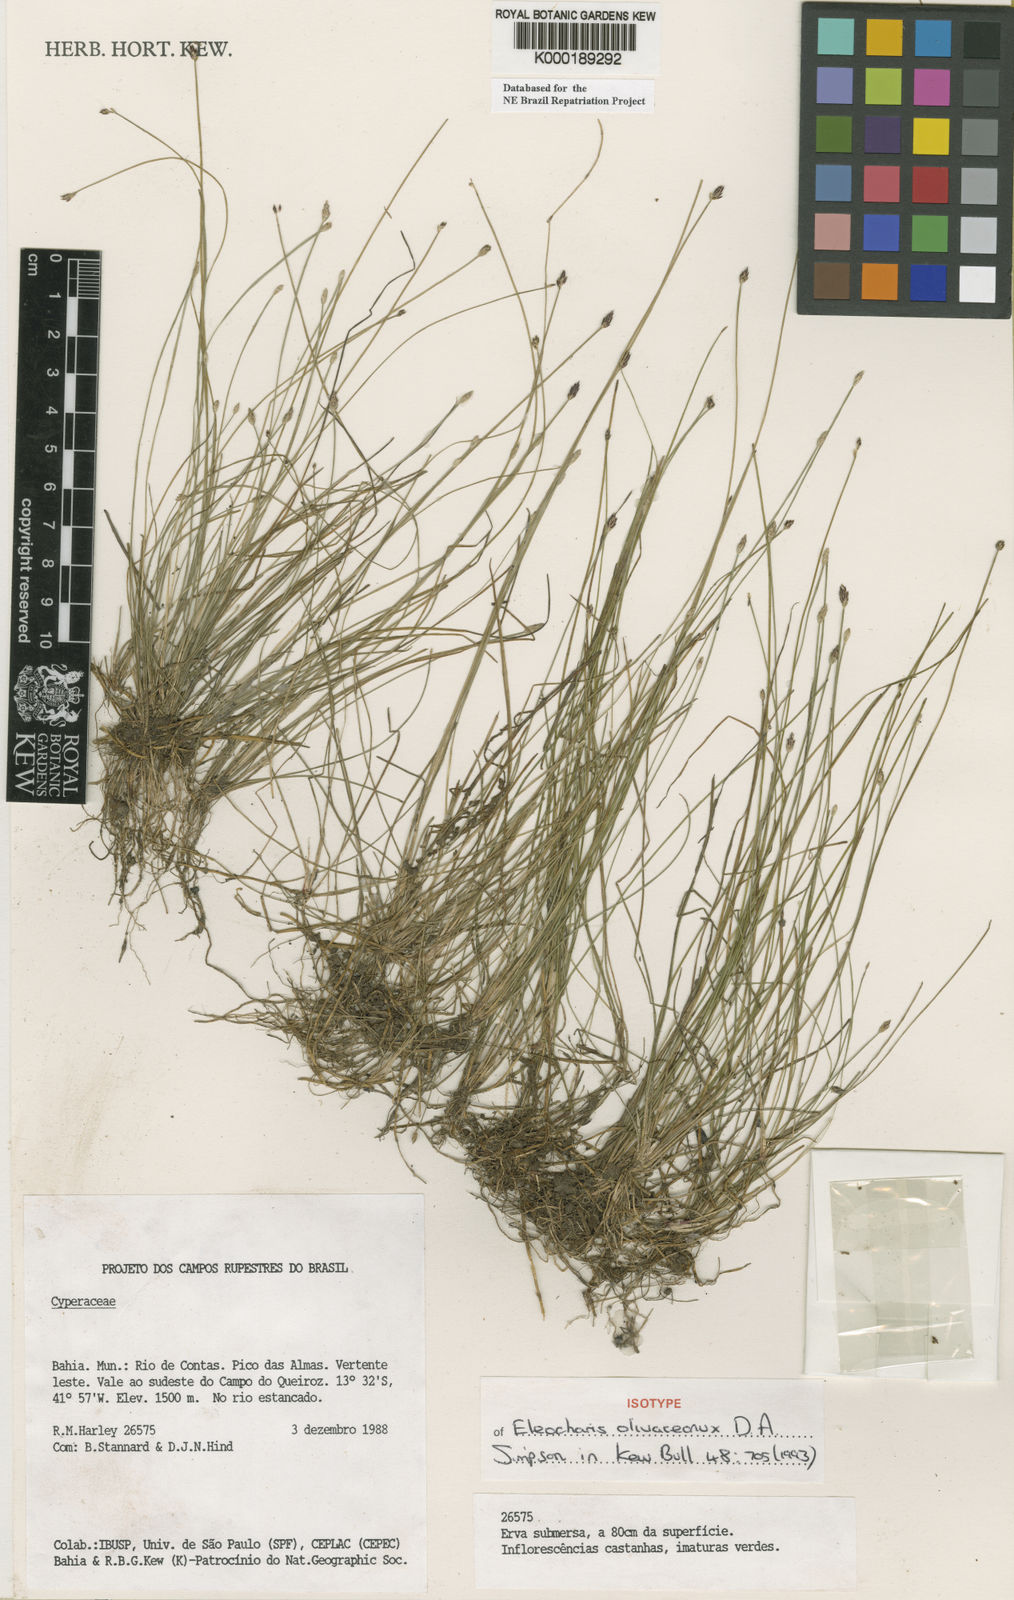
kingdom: Plantae
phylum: Tracheophyta
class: Liliopsida
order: Poales
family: Cyperaceae
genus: Eleocharis
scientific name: Eleocharis olivaceonux
